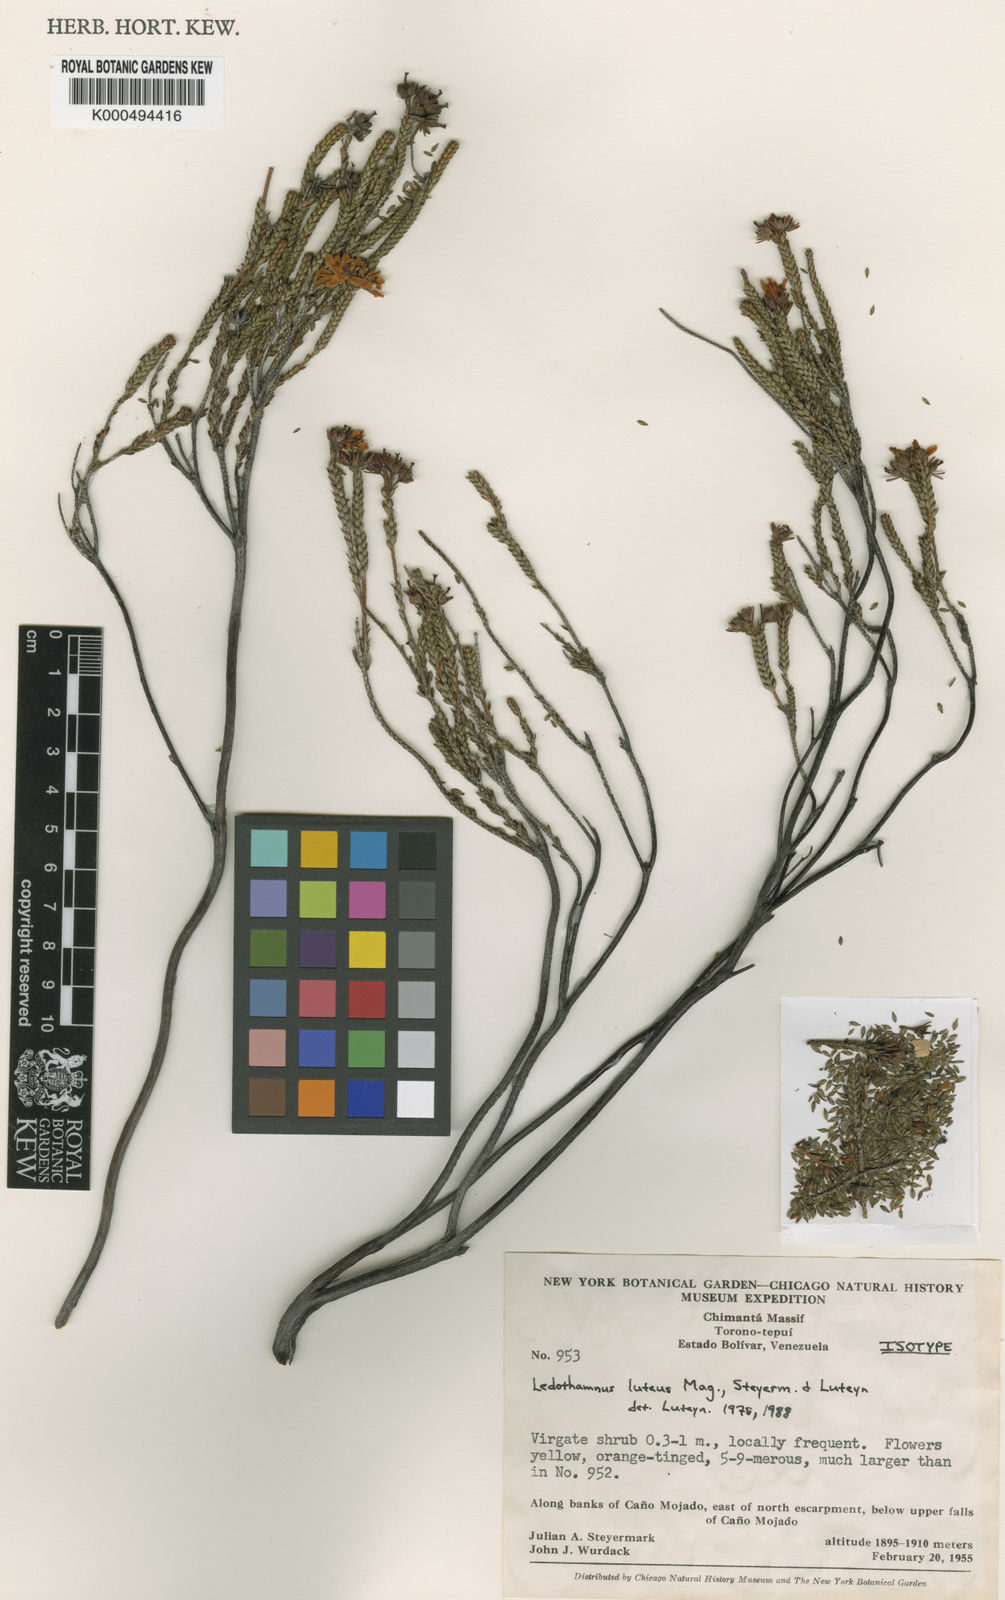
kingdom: Plantae
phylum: Tracheophyta
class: Magnoliopsida
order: Ericales
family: Ericaceae
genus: Ledothamnus
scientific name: Ledothamnus luteus
